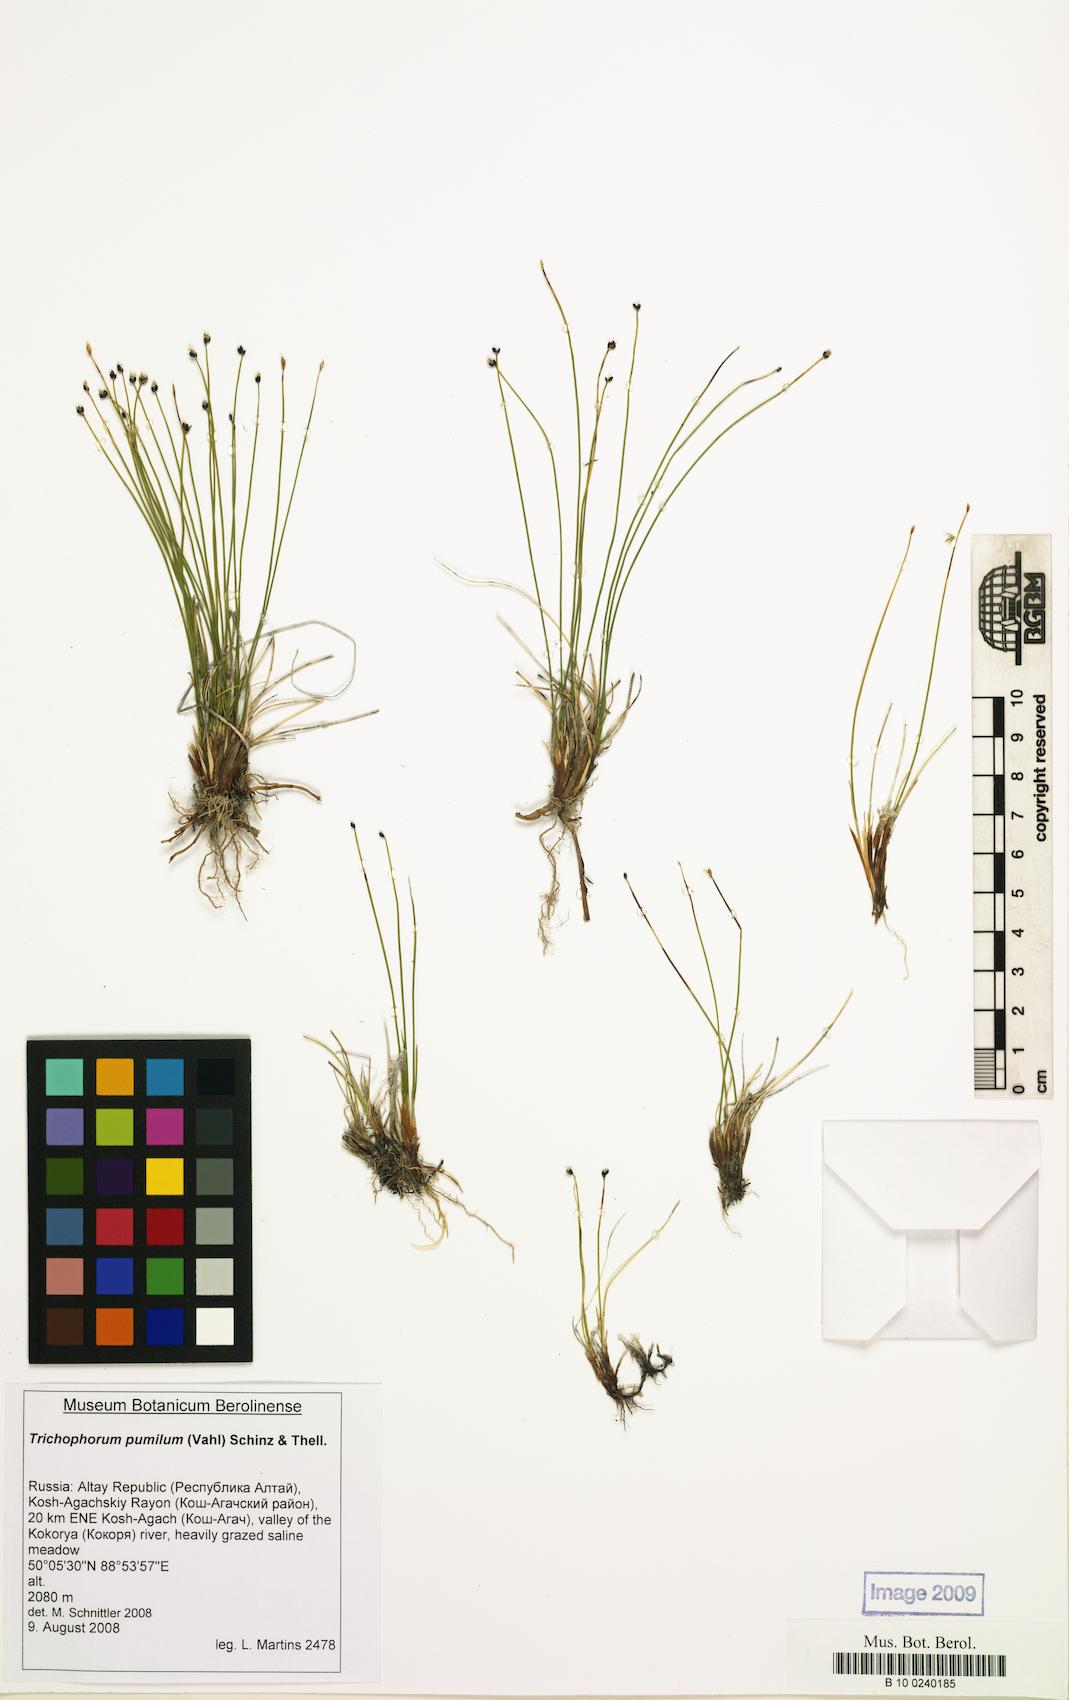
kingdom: Plantae
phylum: Tracheophyta
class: Liliopsida
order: Poales
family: Cyperaceae
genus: Trichophorum
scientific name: Trichophorum pumilum
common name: Rolland's bulrush
